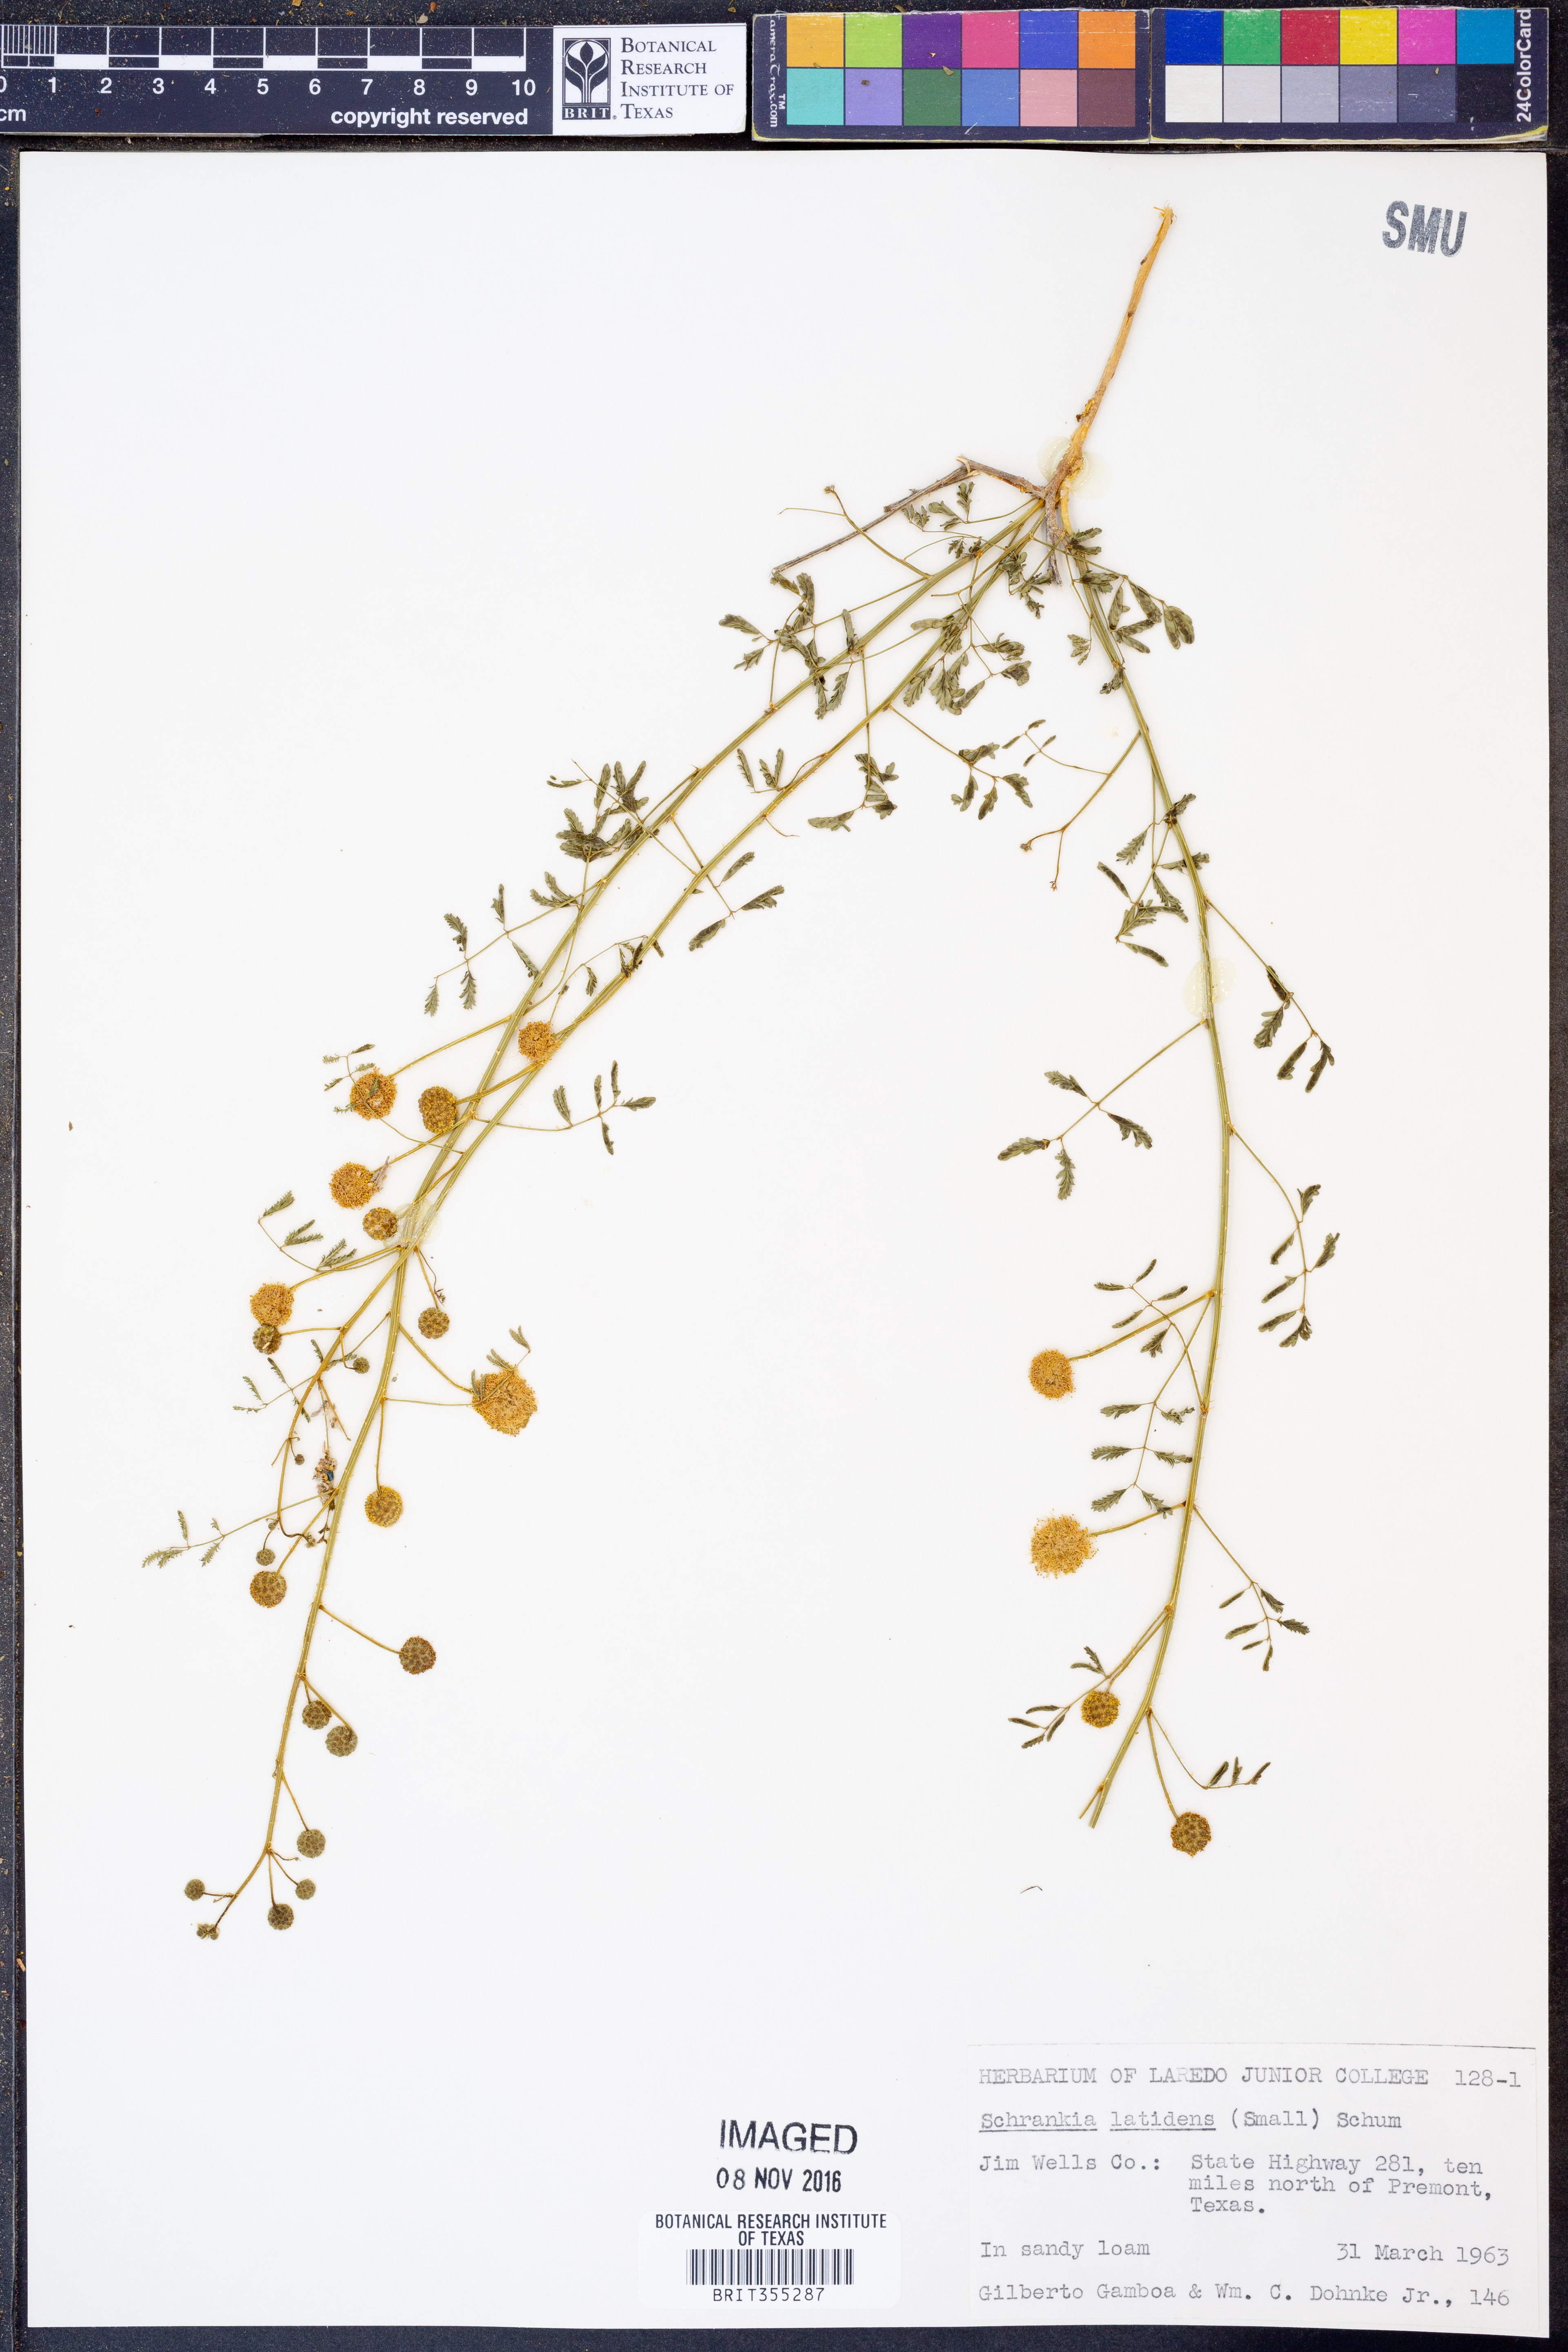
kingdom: Plantae
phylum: Tracheophyta
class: Magnoliopsida
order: Fabales
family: Fabaceae
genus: Mimosa
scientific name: Mimosa quadrivalvis
